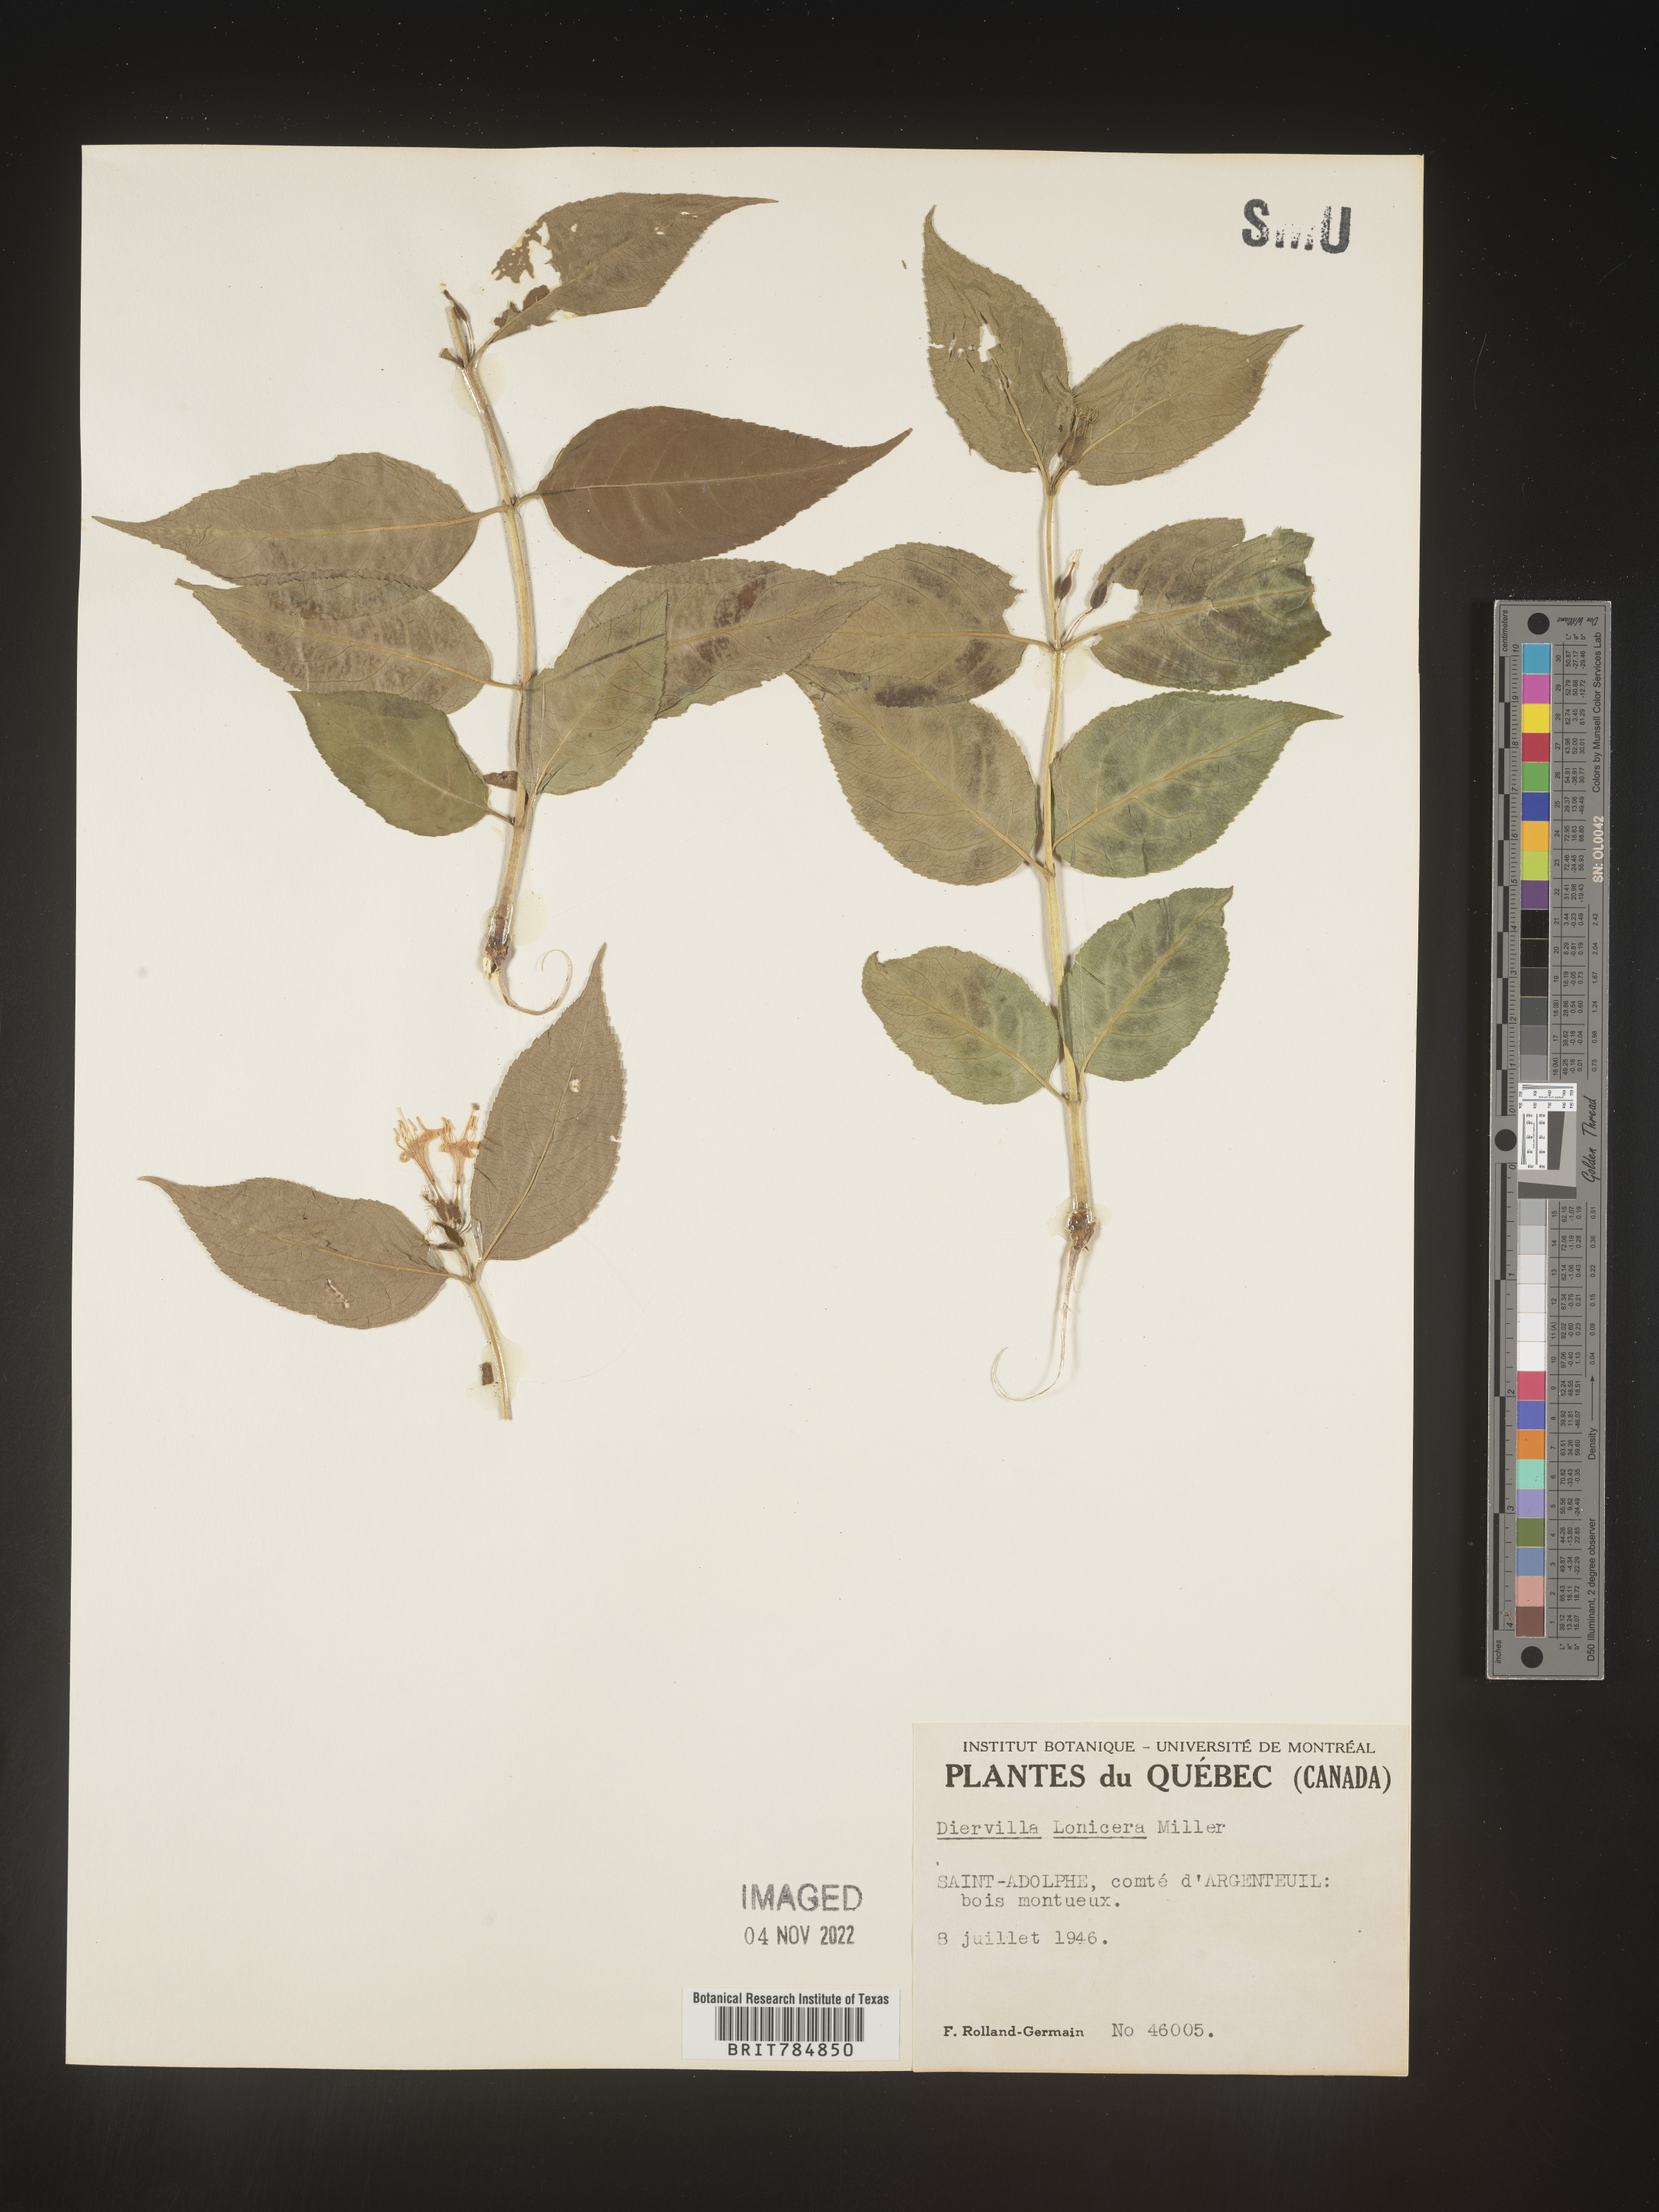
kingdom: Plantae
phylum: Tracheophyta
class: Magnoliopsida
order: Dipsacales
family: Caprifoliaceae
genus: Diervilla
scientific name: Diervilla lonicera
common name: Bush-honeysuckle
